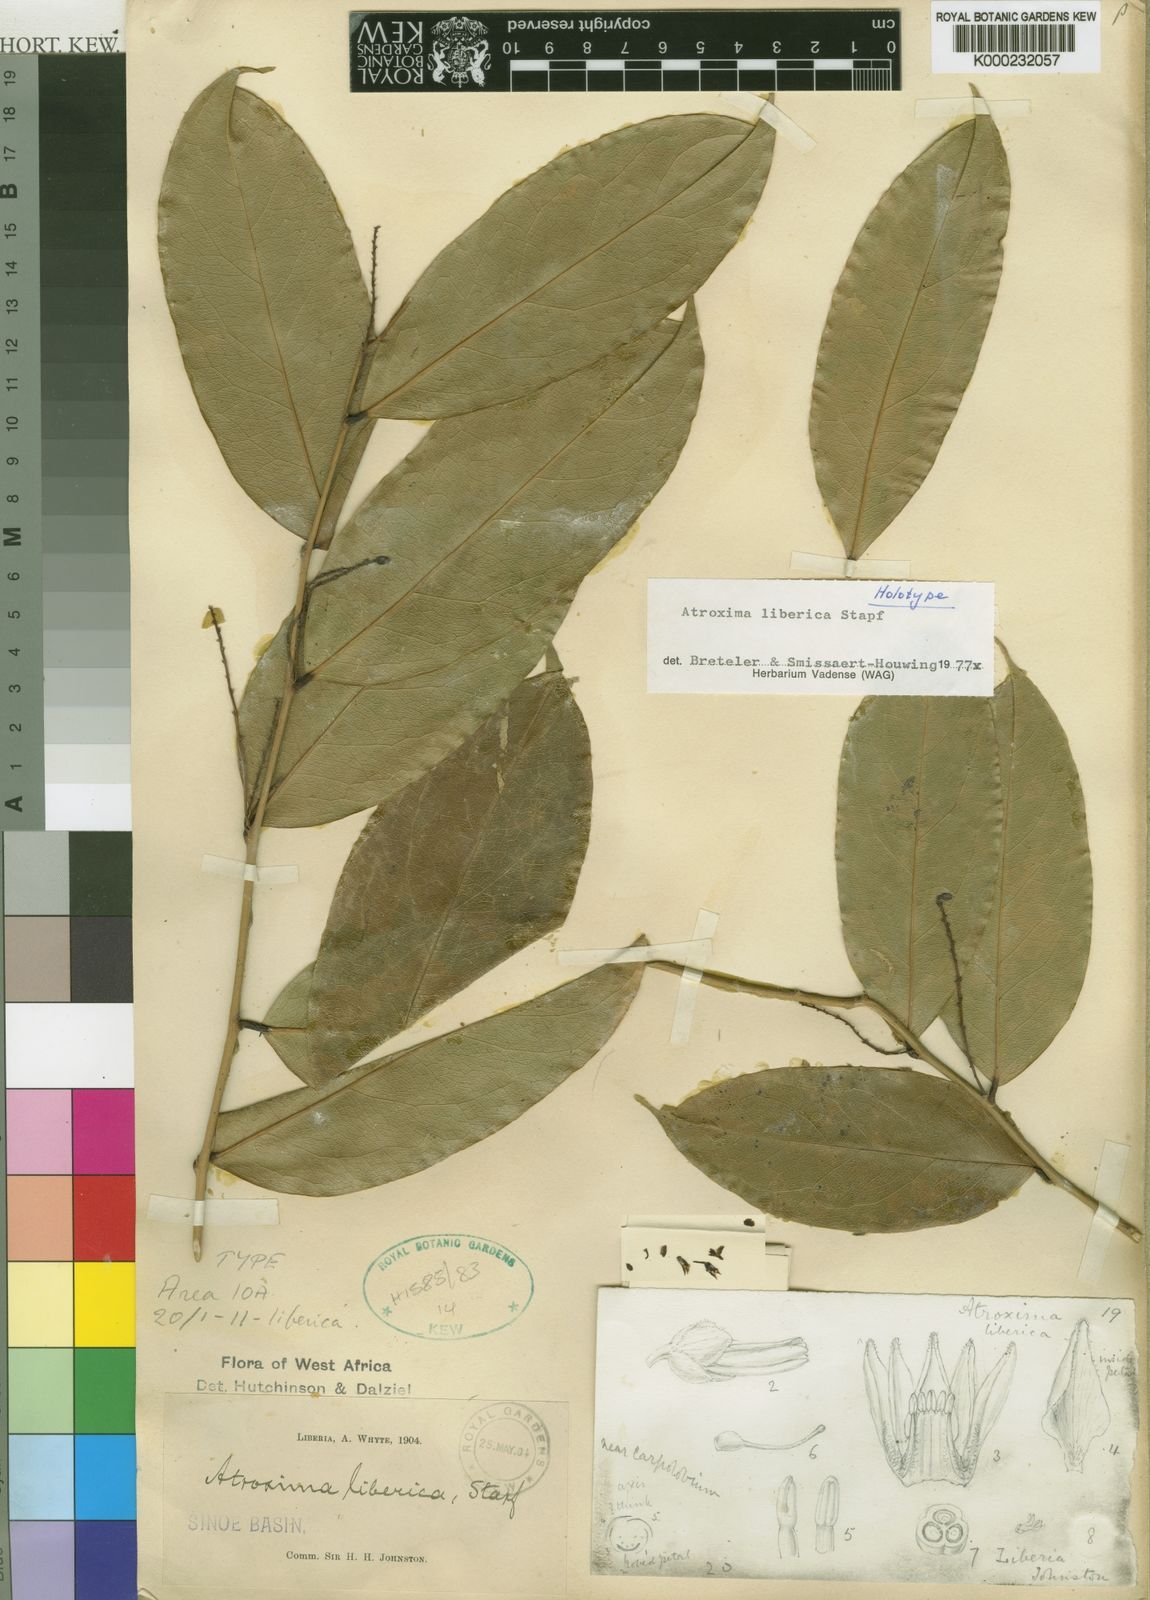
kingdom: Plantae
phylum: Tracheophyta
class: Magnoliopsida
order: Fabales
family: Polygalaceae
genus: Atroxima
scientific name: Atroxima liberica
